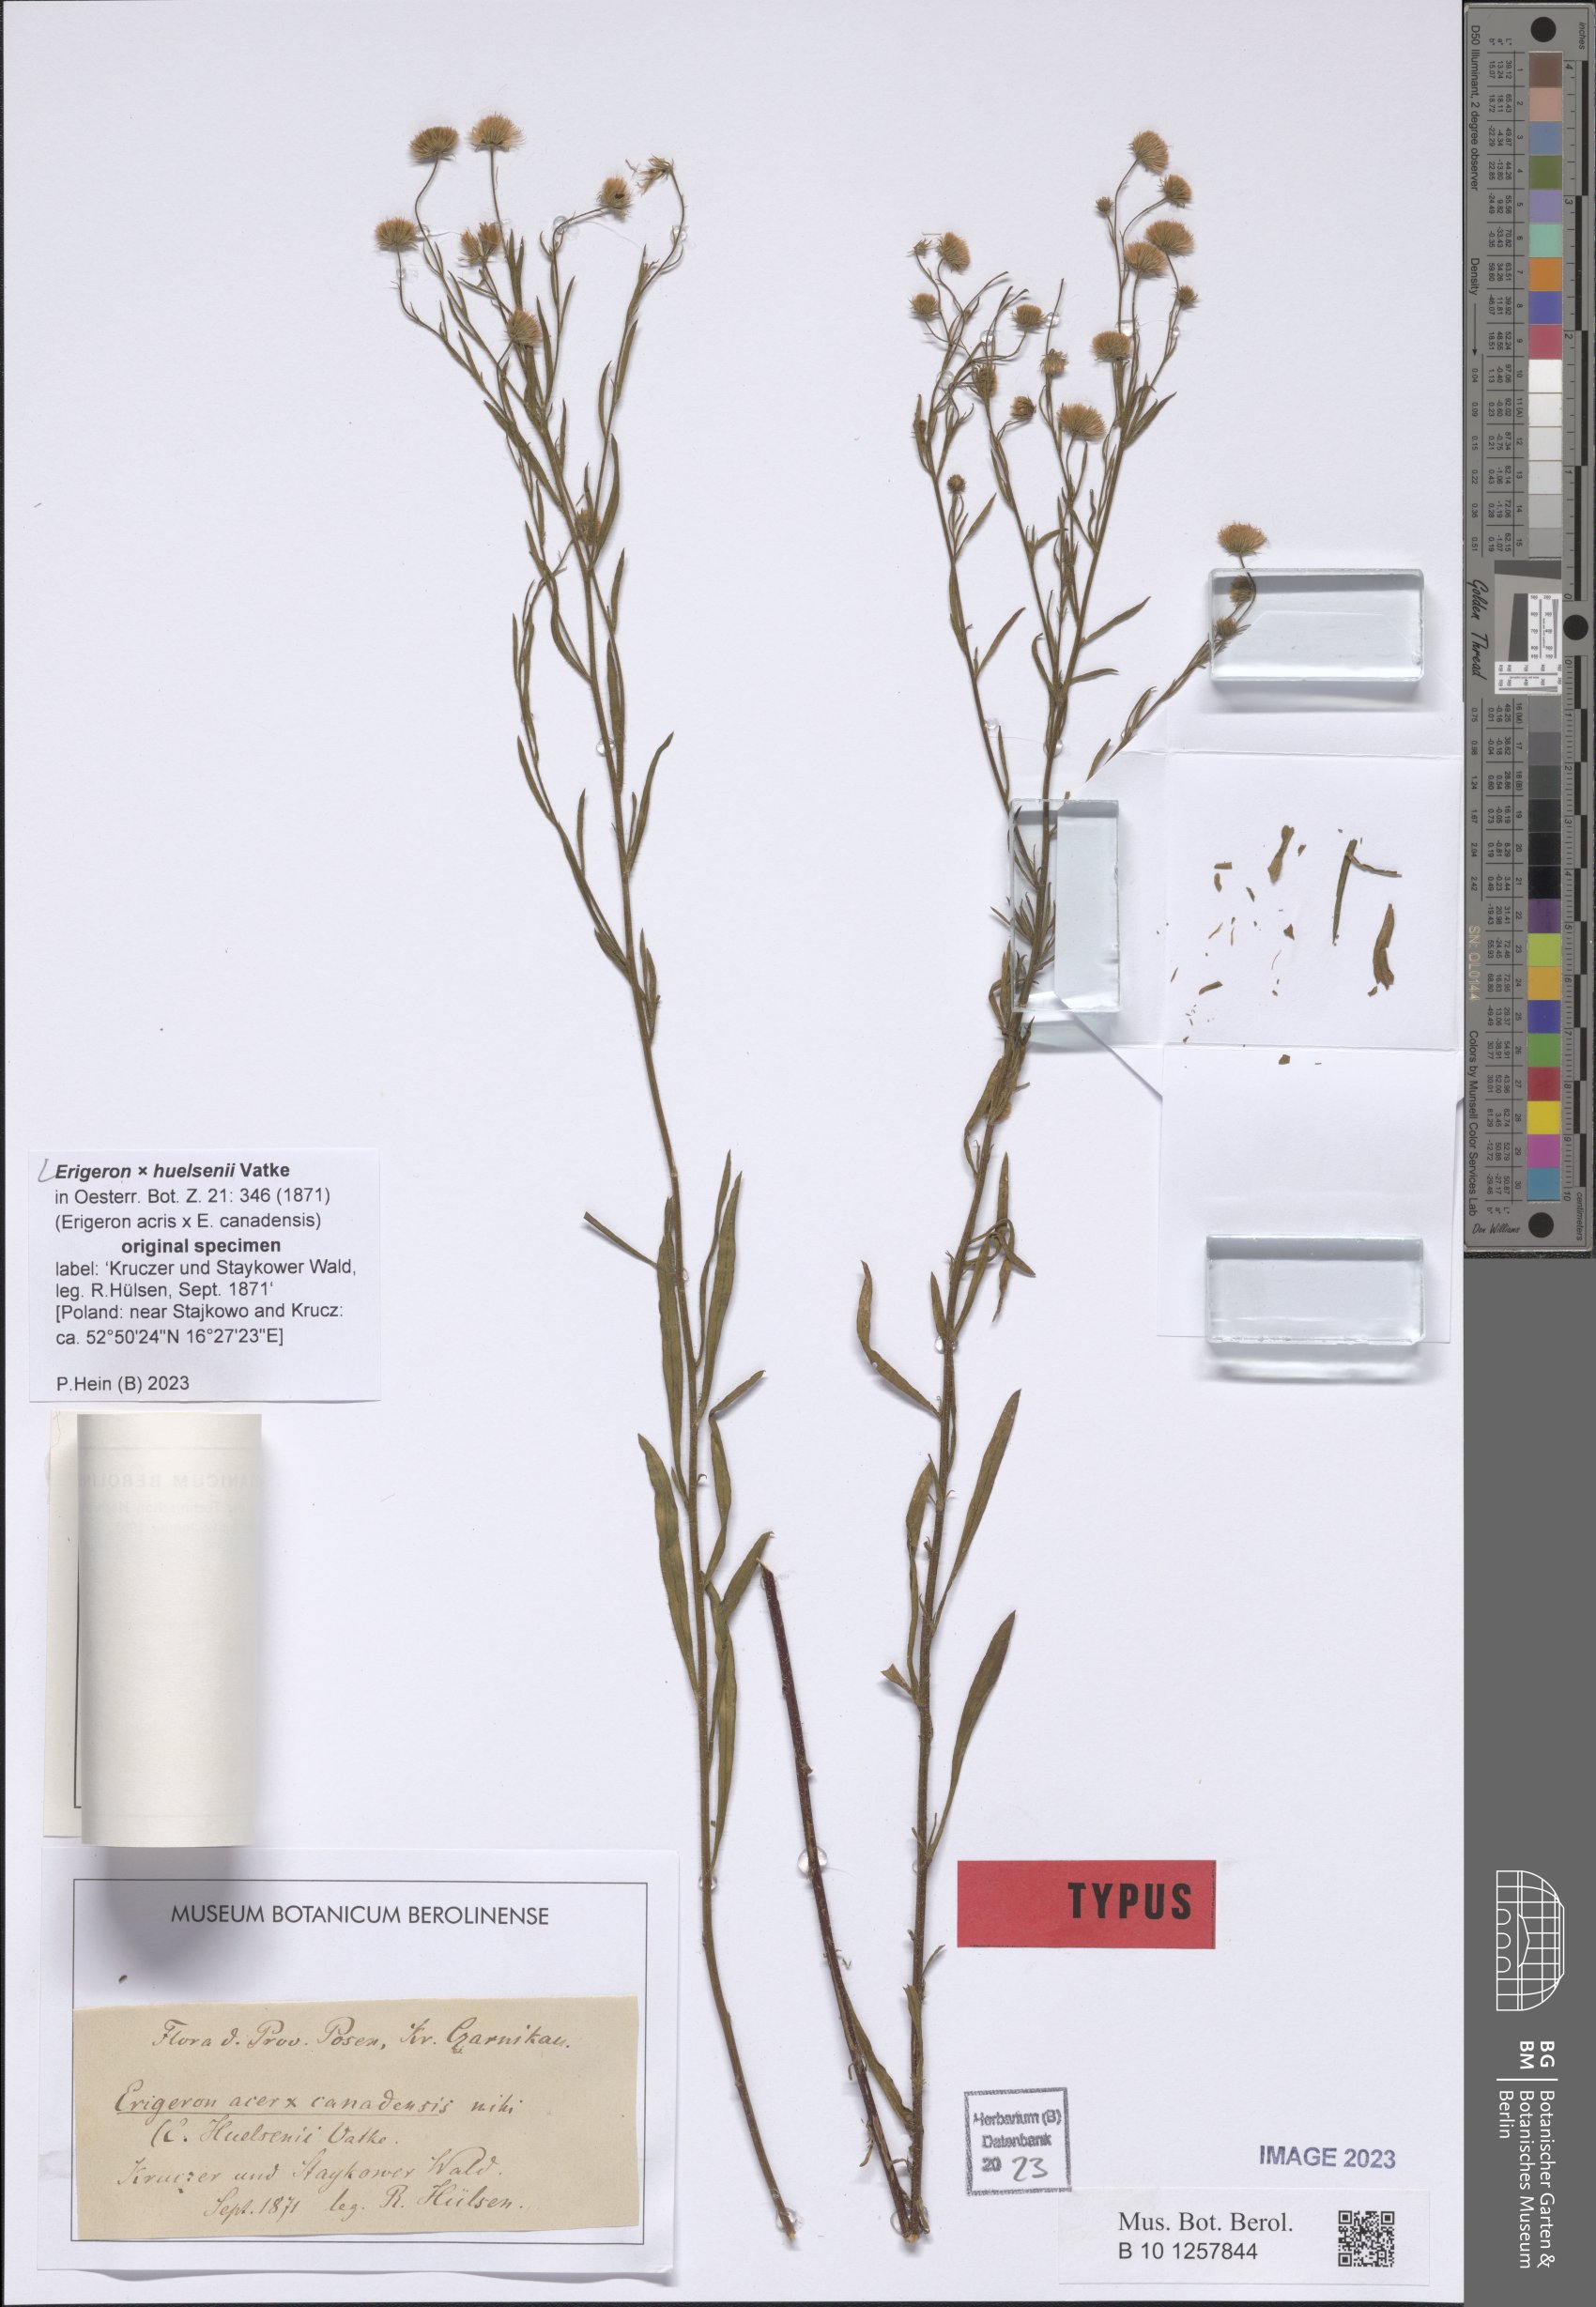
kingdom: Plantae
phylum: Tracheophyta
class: Magnoliopsida
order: Asterales
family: Asteraceae
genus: Erigeron
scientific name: Erigeron huelsenii
